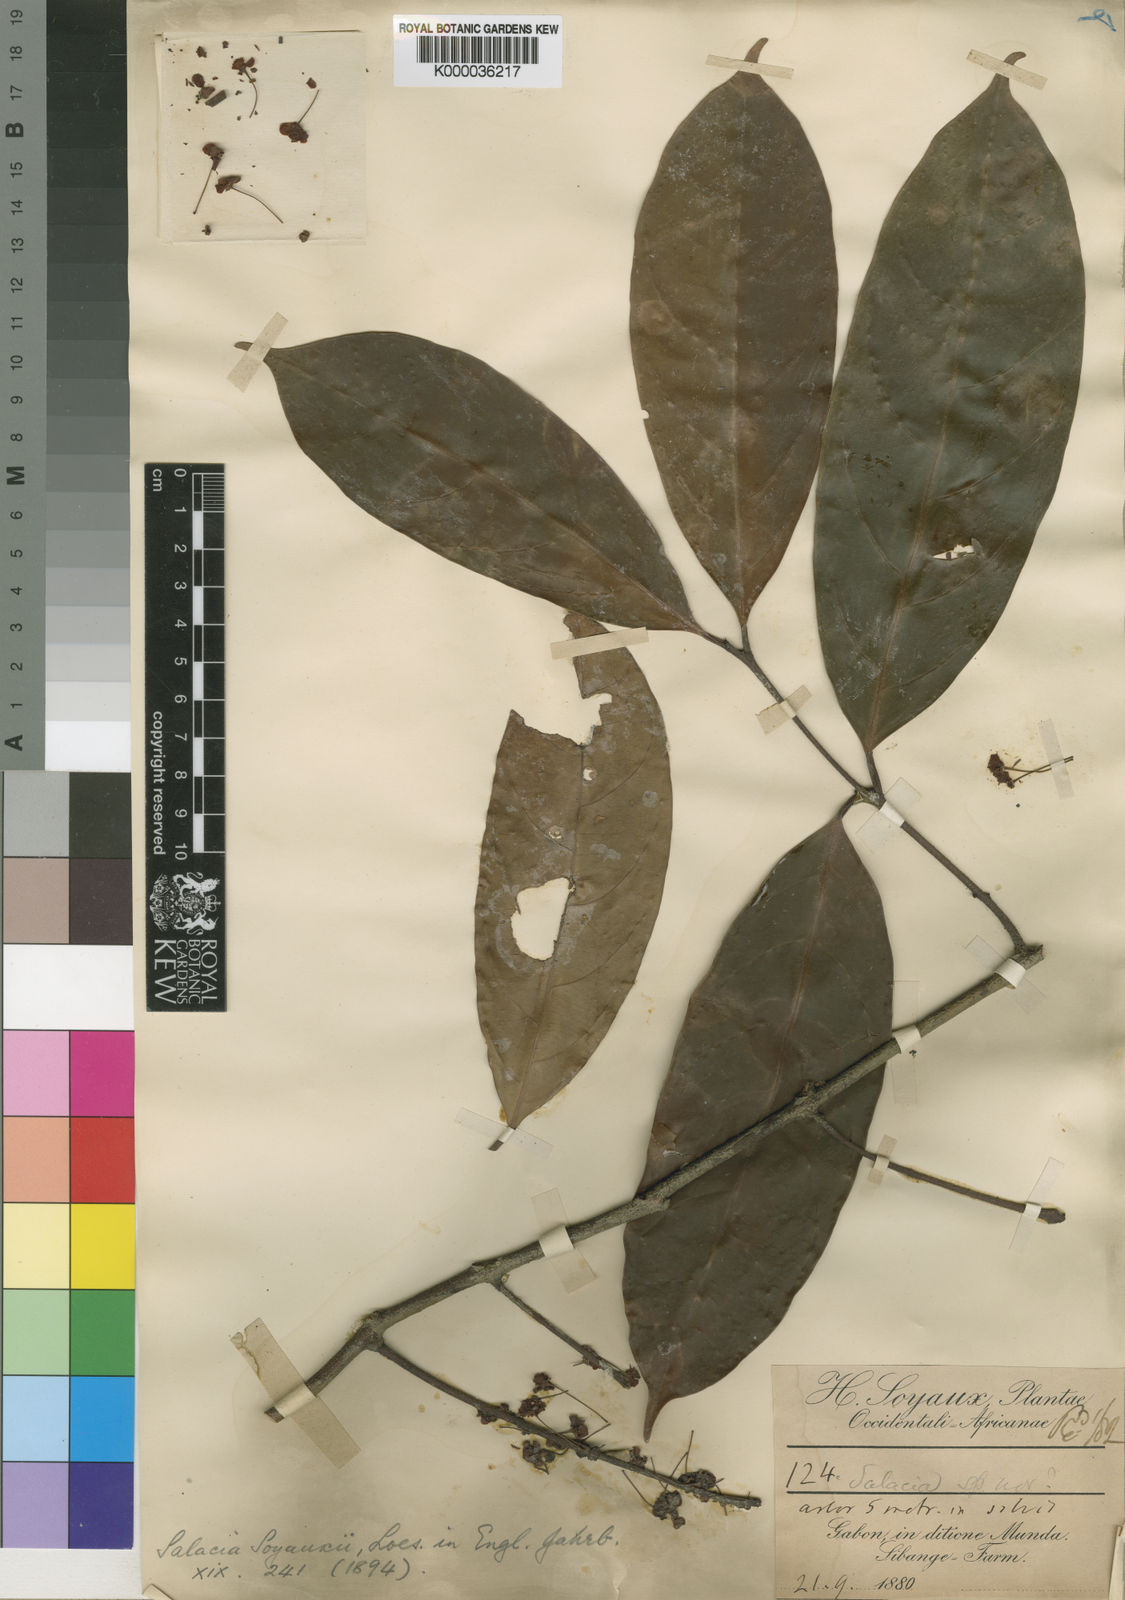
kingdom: Plantae
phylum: Tracheophyta
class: Magnoliopsida
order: Celastrales
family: Celastraceae
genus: Salacia
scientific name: Salacia mannii
